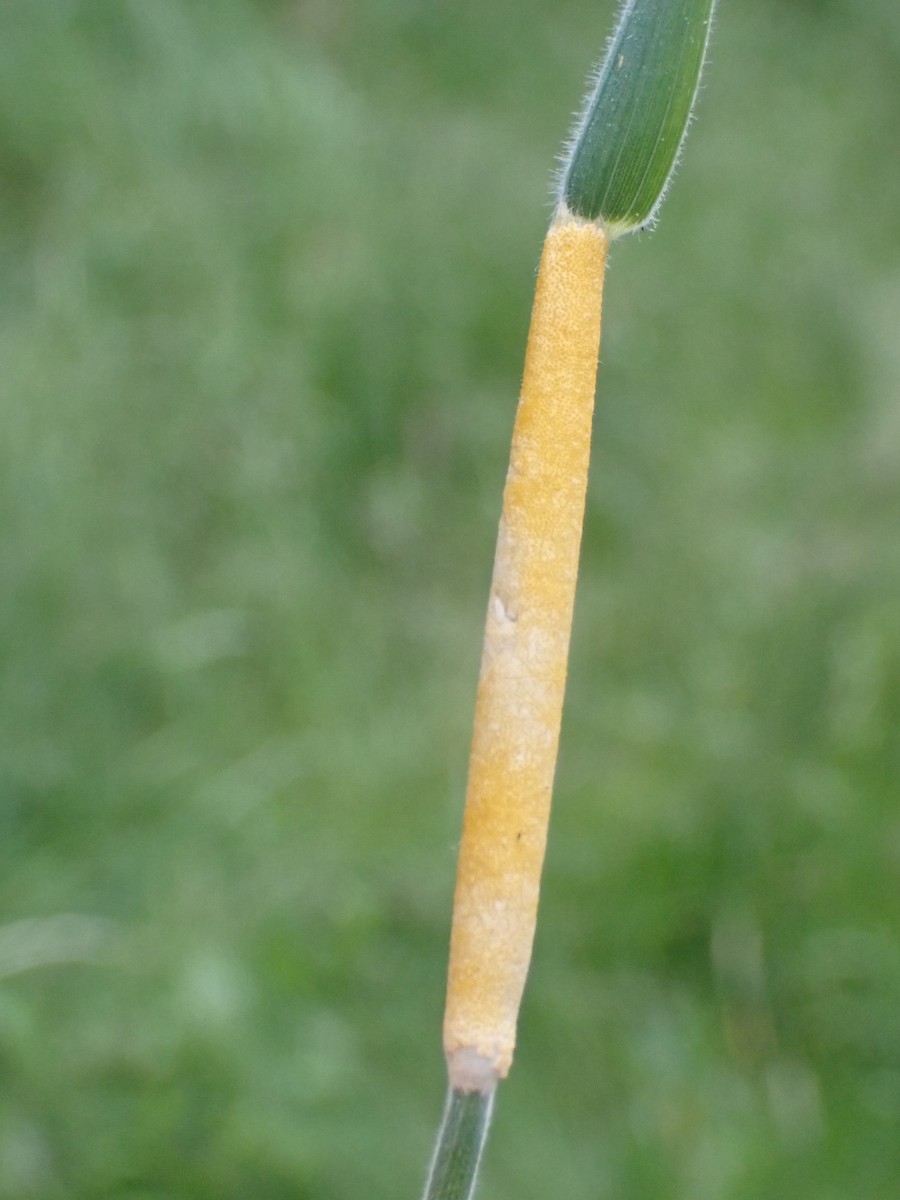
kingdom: Fungi
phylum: Ascomycota
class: Sordariomycetes
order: Hypocreales
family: Clavicipitaceae
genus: Epichloe
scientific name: Epichloe clarkii
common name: fløjlsgræs-kernerør
